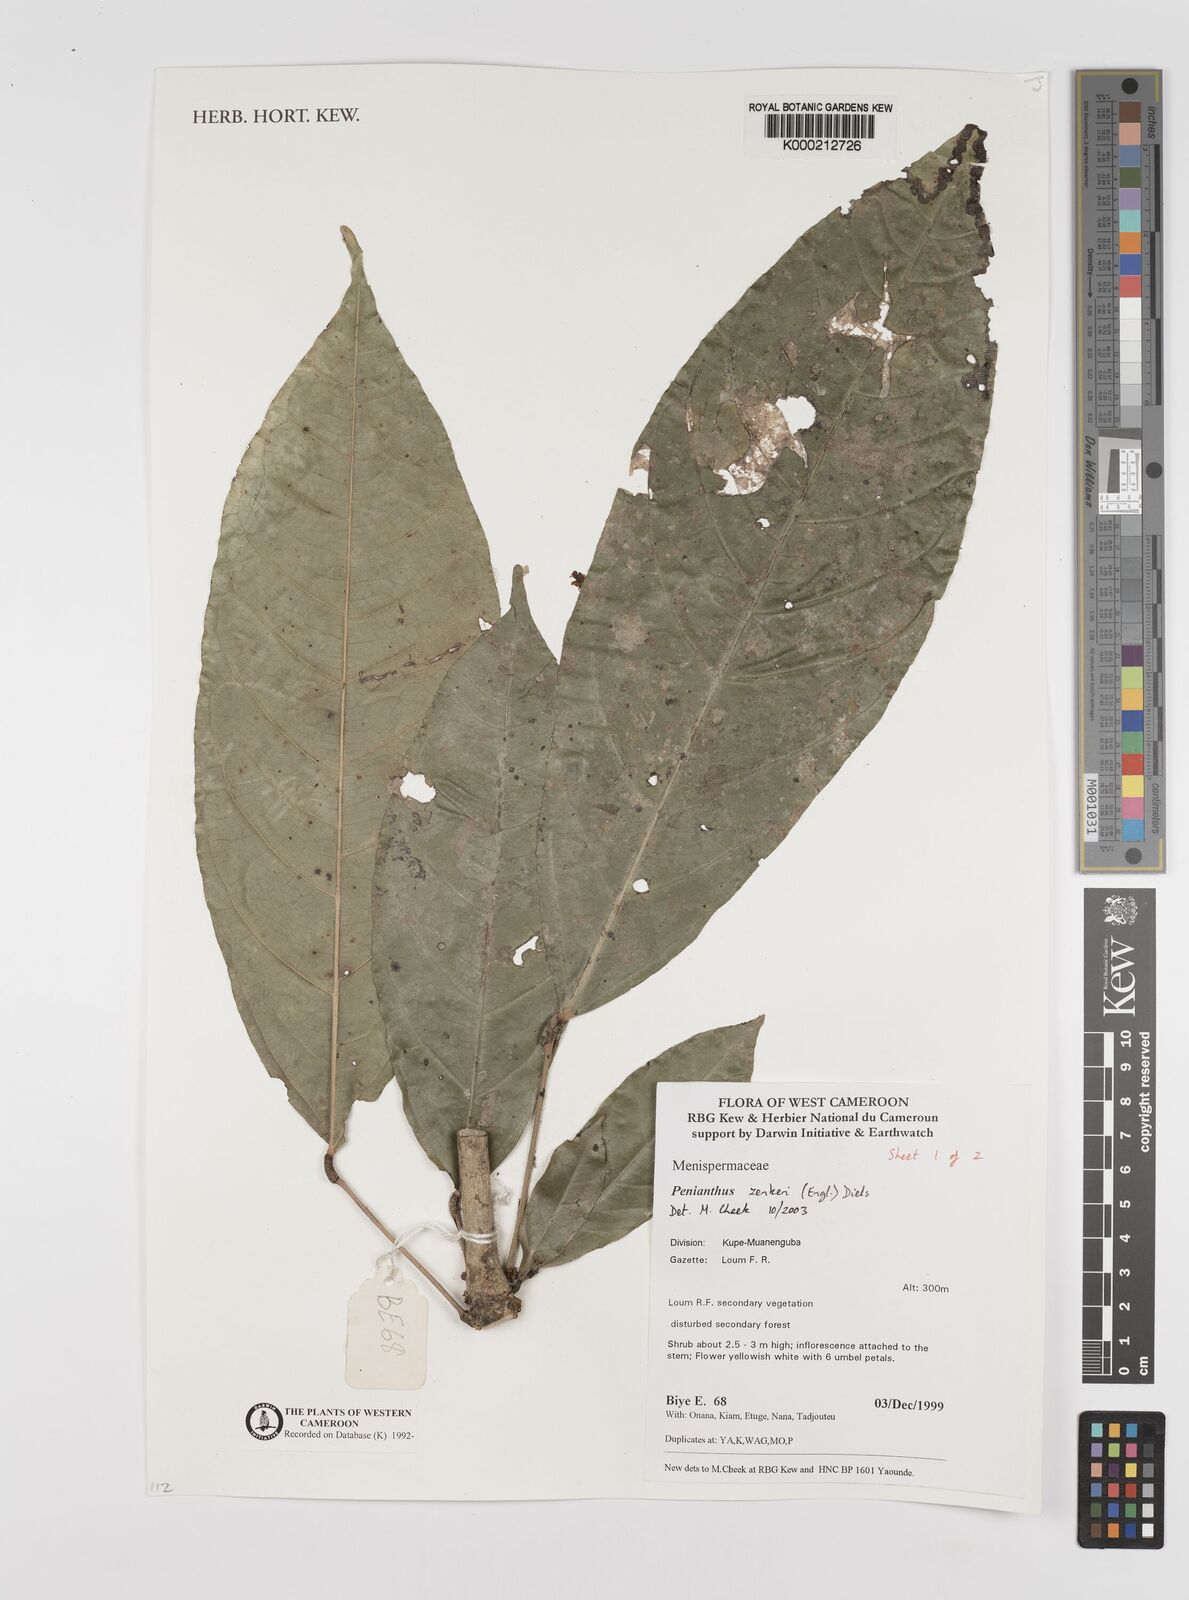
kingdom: Plantae
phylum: Tracheophyta
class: Magnoliopsida
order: Ranunculales
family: Menispermaceae
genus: Penianthus
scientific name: Penianthus zenkeri
